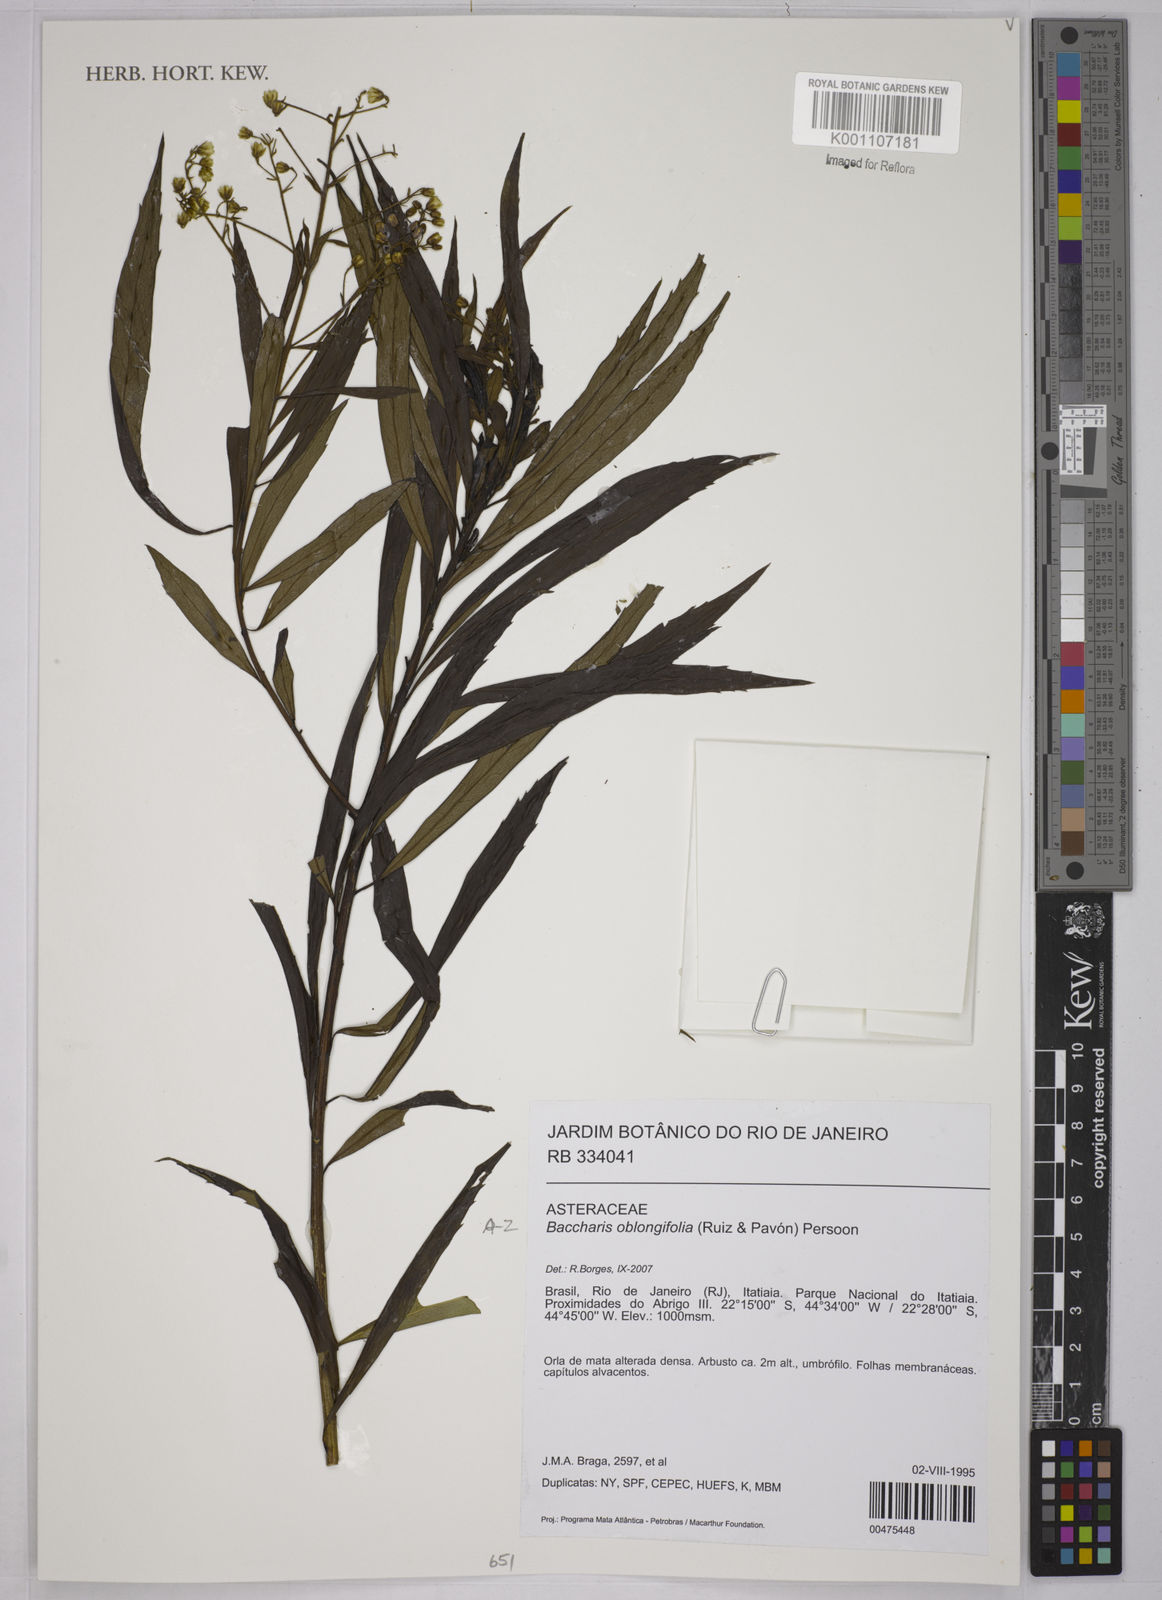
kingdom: Plantae
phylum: Tracheophyta
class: Magnoliopsida
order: Asterales
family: Asteraceae
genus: Baccharis
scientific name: Baccharis oblongifolia
